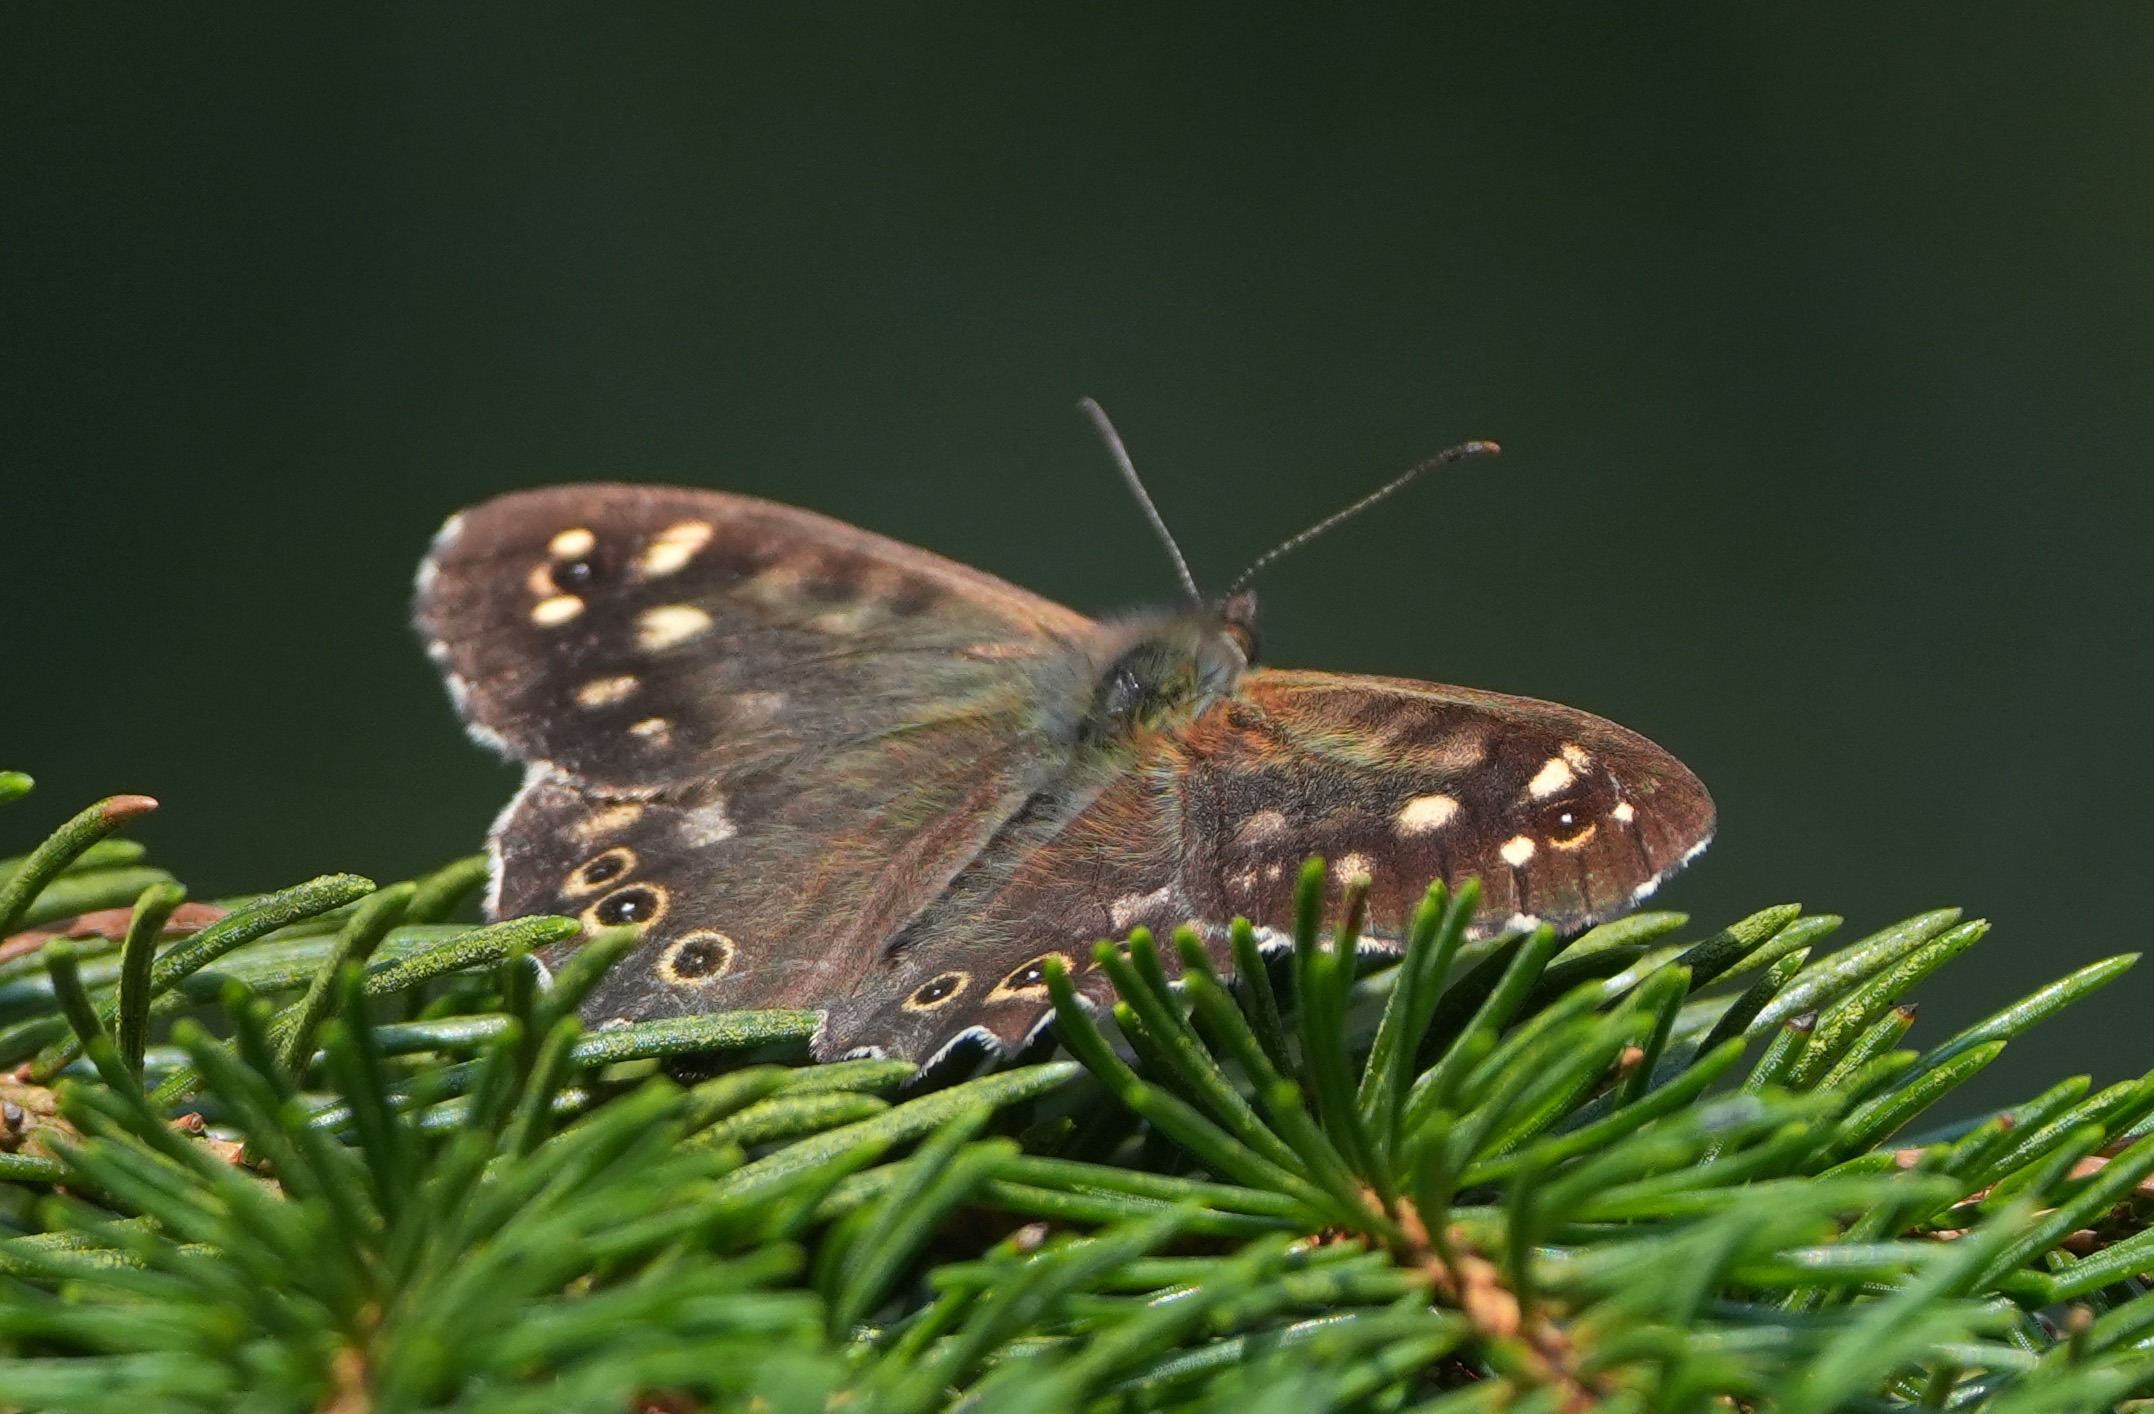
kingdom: Animalia
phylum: Arthropoda
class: Insecta
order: Lepidoptera
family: Nymphalidae
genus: Pararge
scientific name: Pararge aegeria
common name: Skovrandøje
